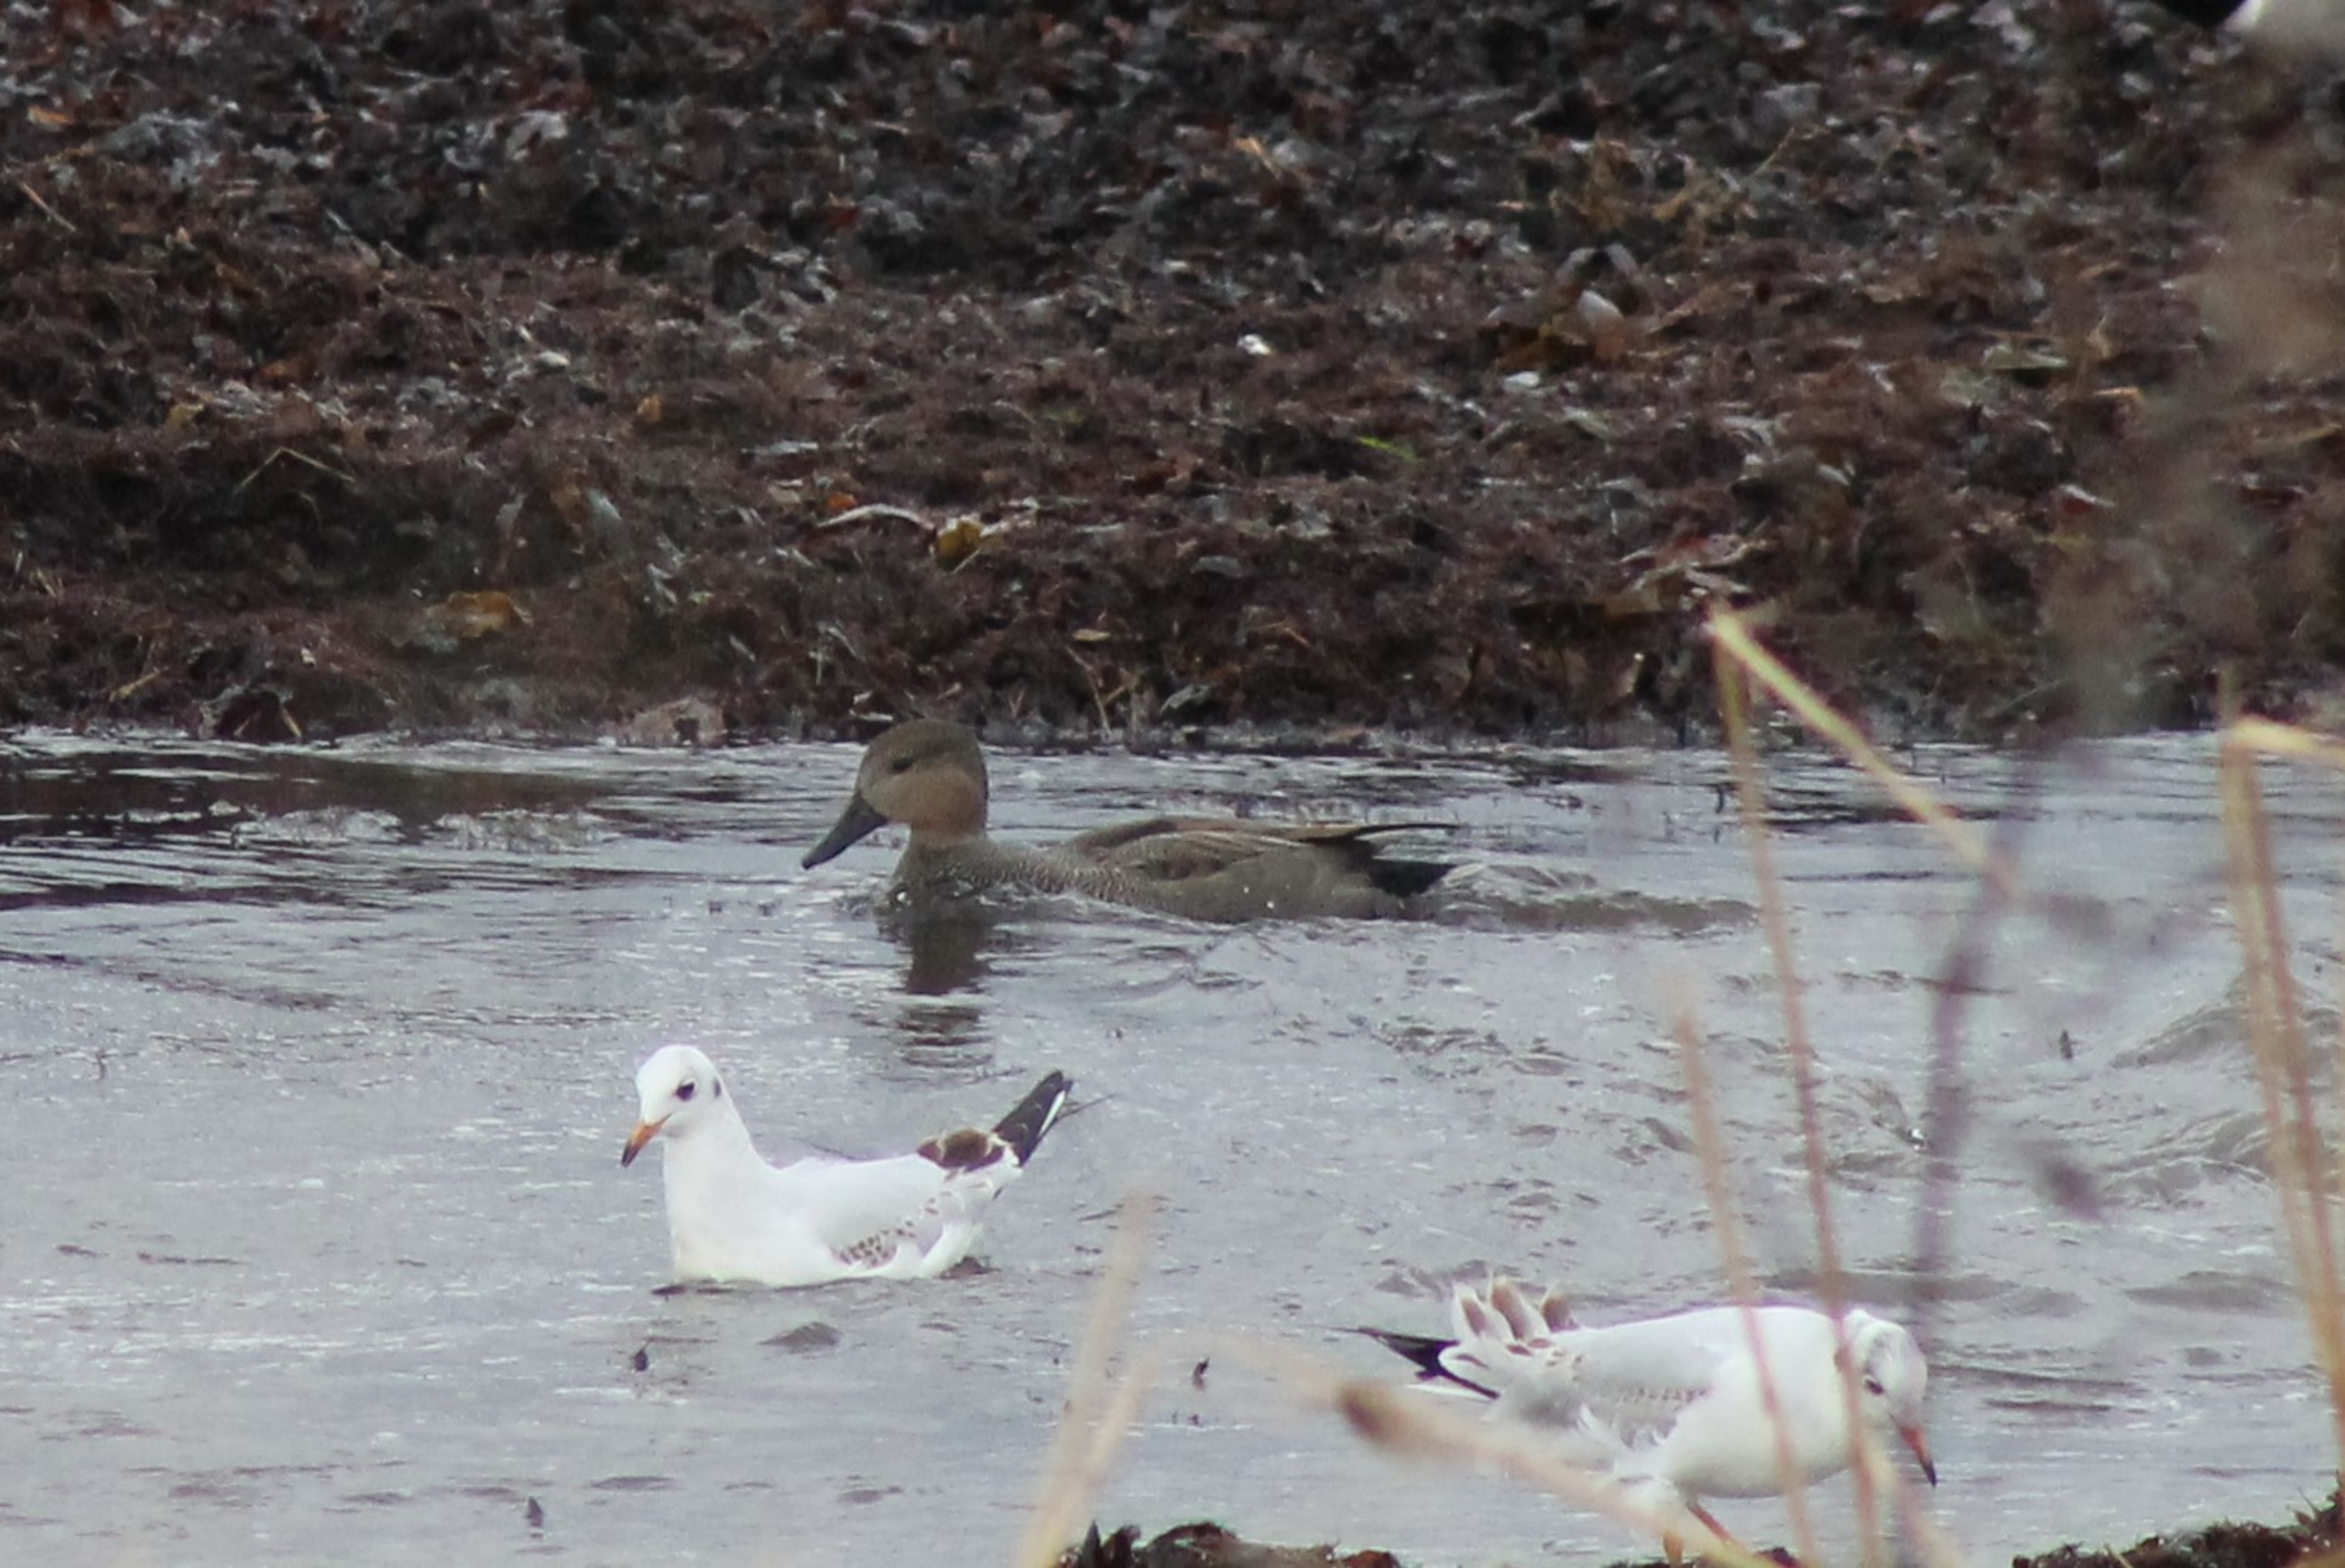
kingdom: Animalia
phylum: Chordata
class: Aves
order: Anseriformes
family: Anatidae
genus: Mareca
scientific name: Mareca strepera
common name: Knarand
